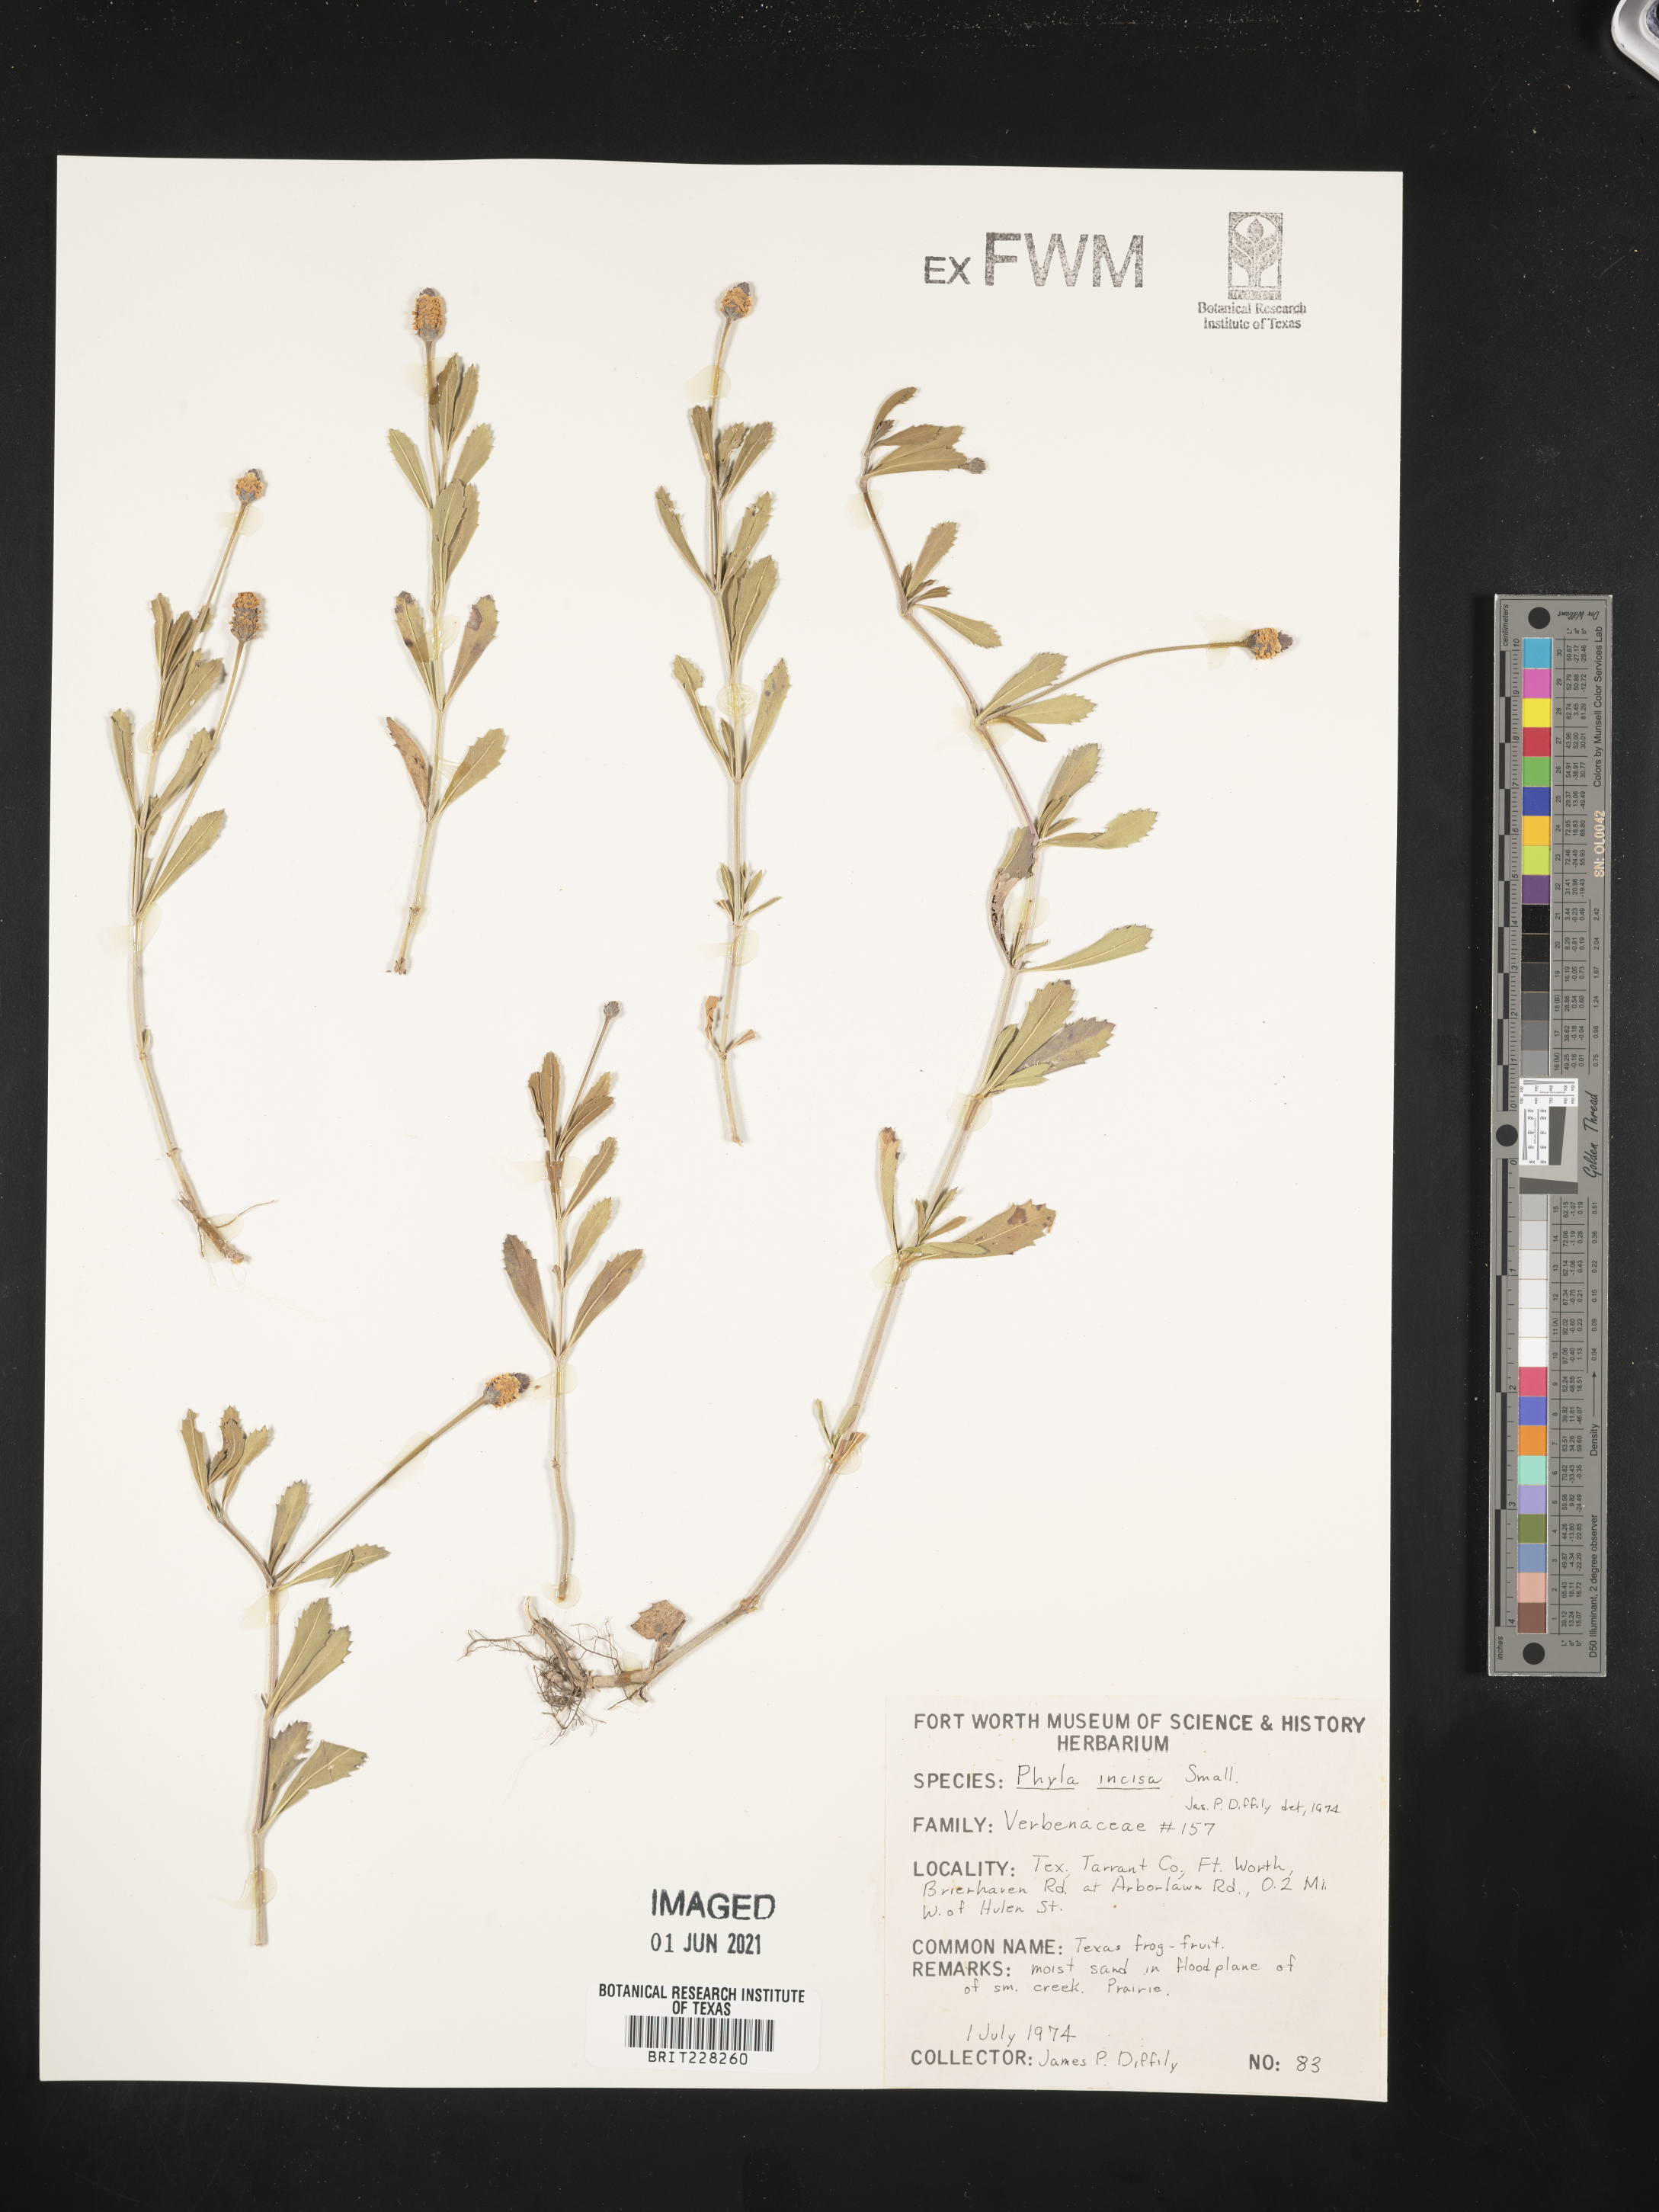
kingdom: Plantae
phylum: Tracheophyta
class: Magnoliopsida
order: Lamiales
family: Verbenaceae
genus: Phyla
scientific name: Phyla nodiflora
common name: Frogfruit
